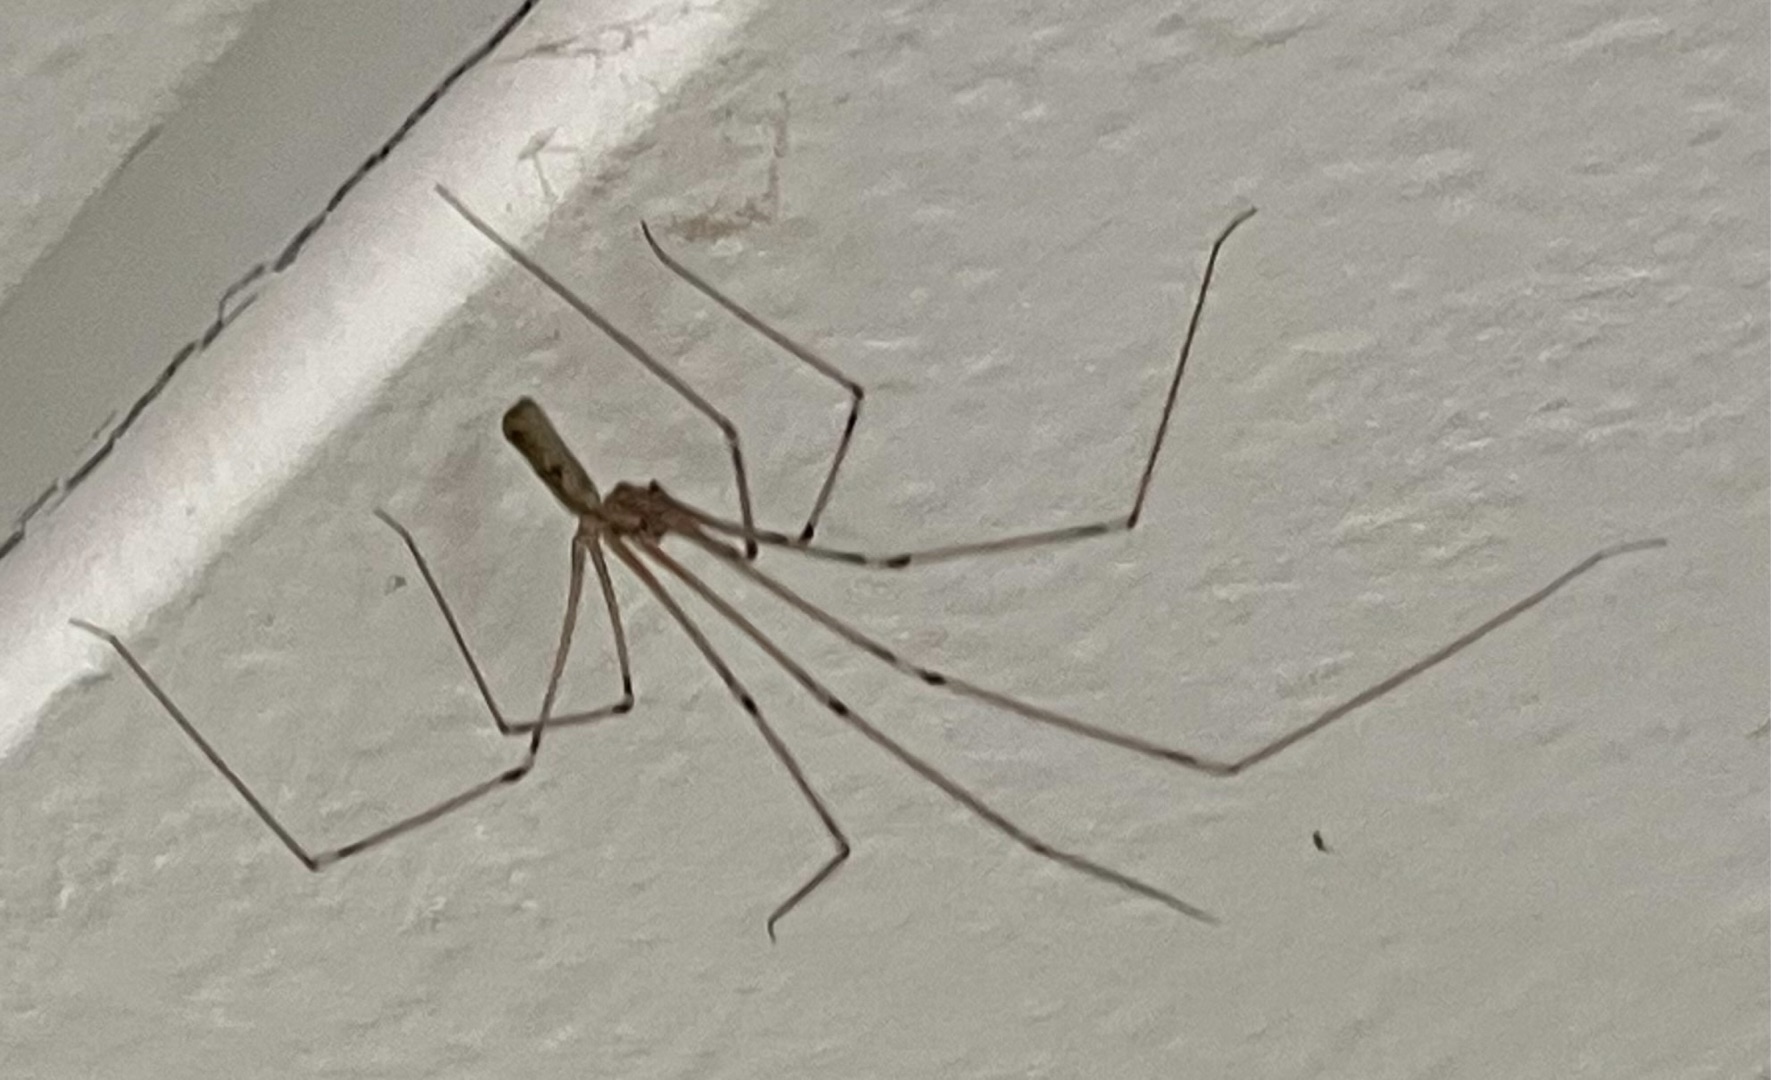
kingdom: Animalia
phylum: Arthropoda
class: Arachnida
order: Araneae
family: Pholcidae
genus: Pholcus
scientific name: Pholcus phalangioides
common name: Mejeredderkop
